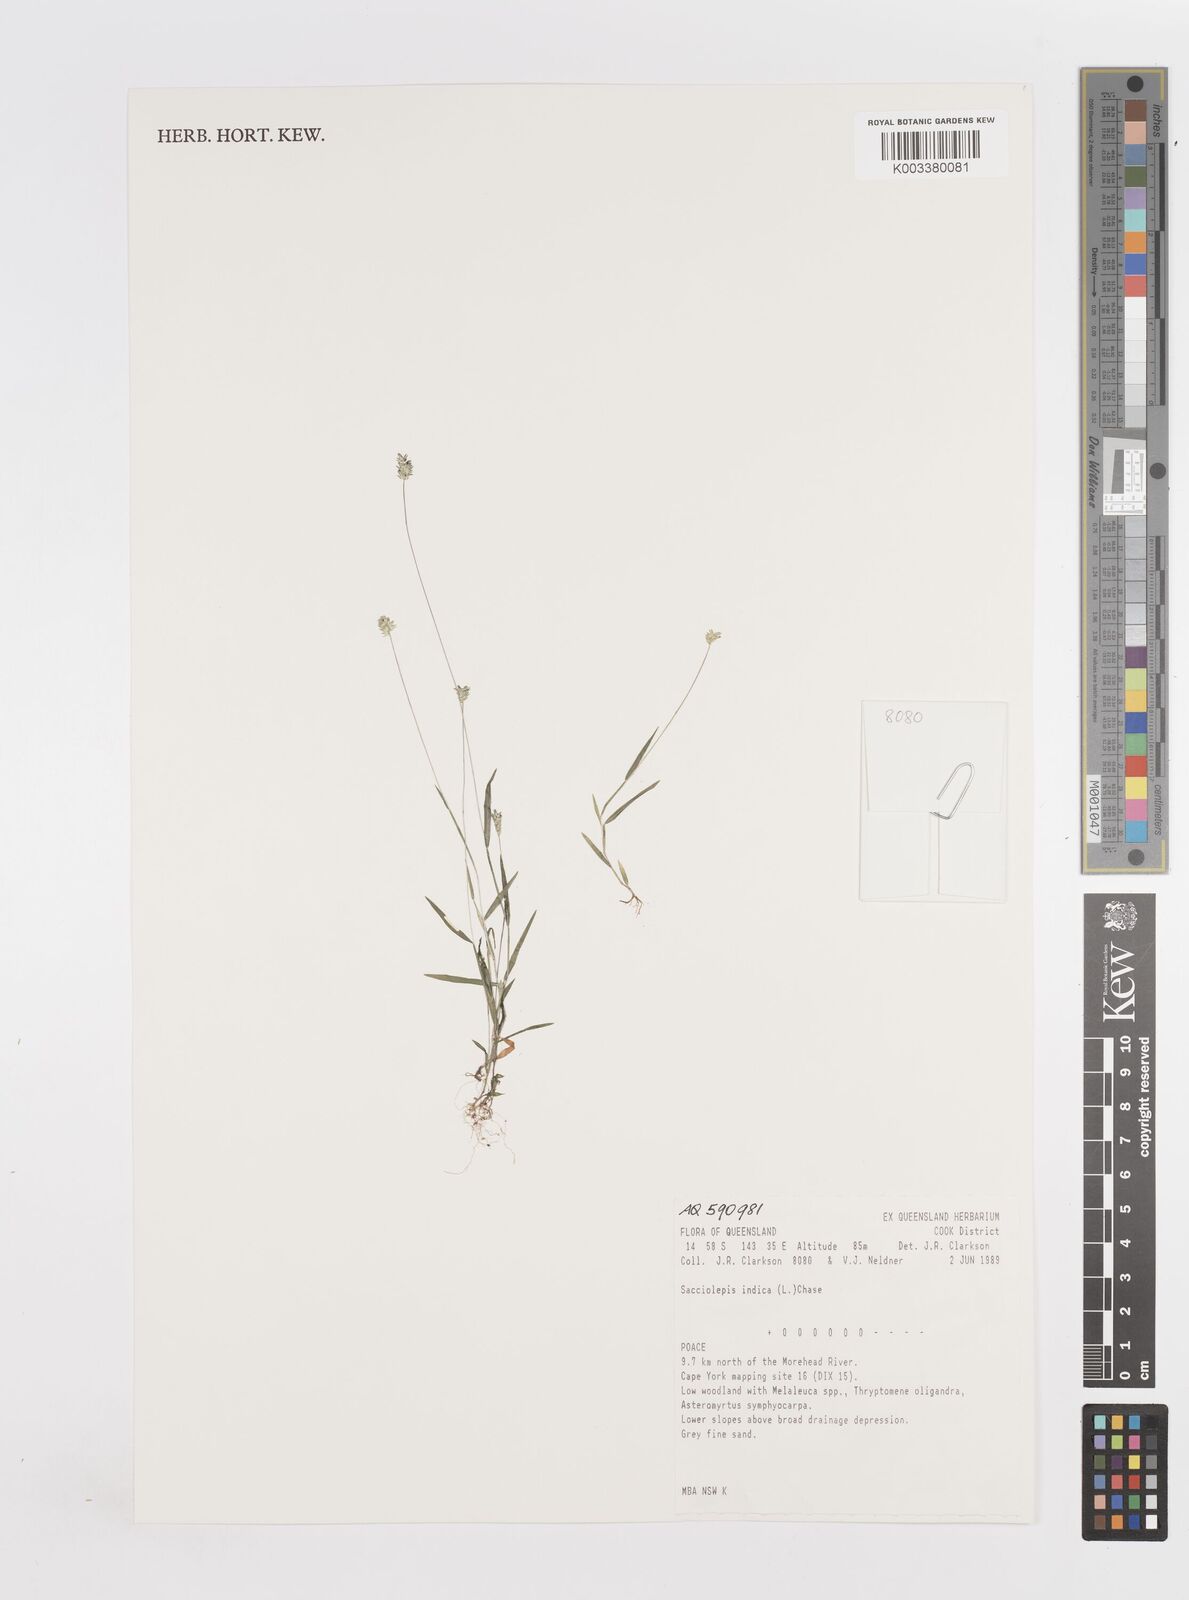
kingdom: Plantae
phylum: Tracheophyta
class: Liliopsida
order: Poales
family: Poaceae
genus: Sacciolepis
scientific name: Sacciolepis indica
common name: Glenwoodgrass
